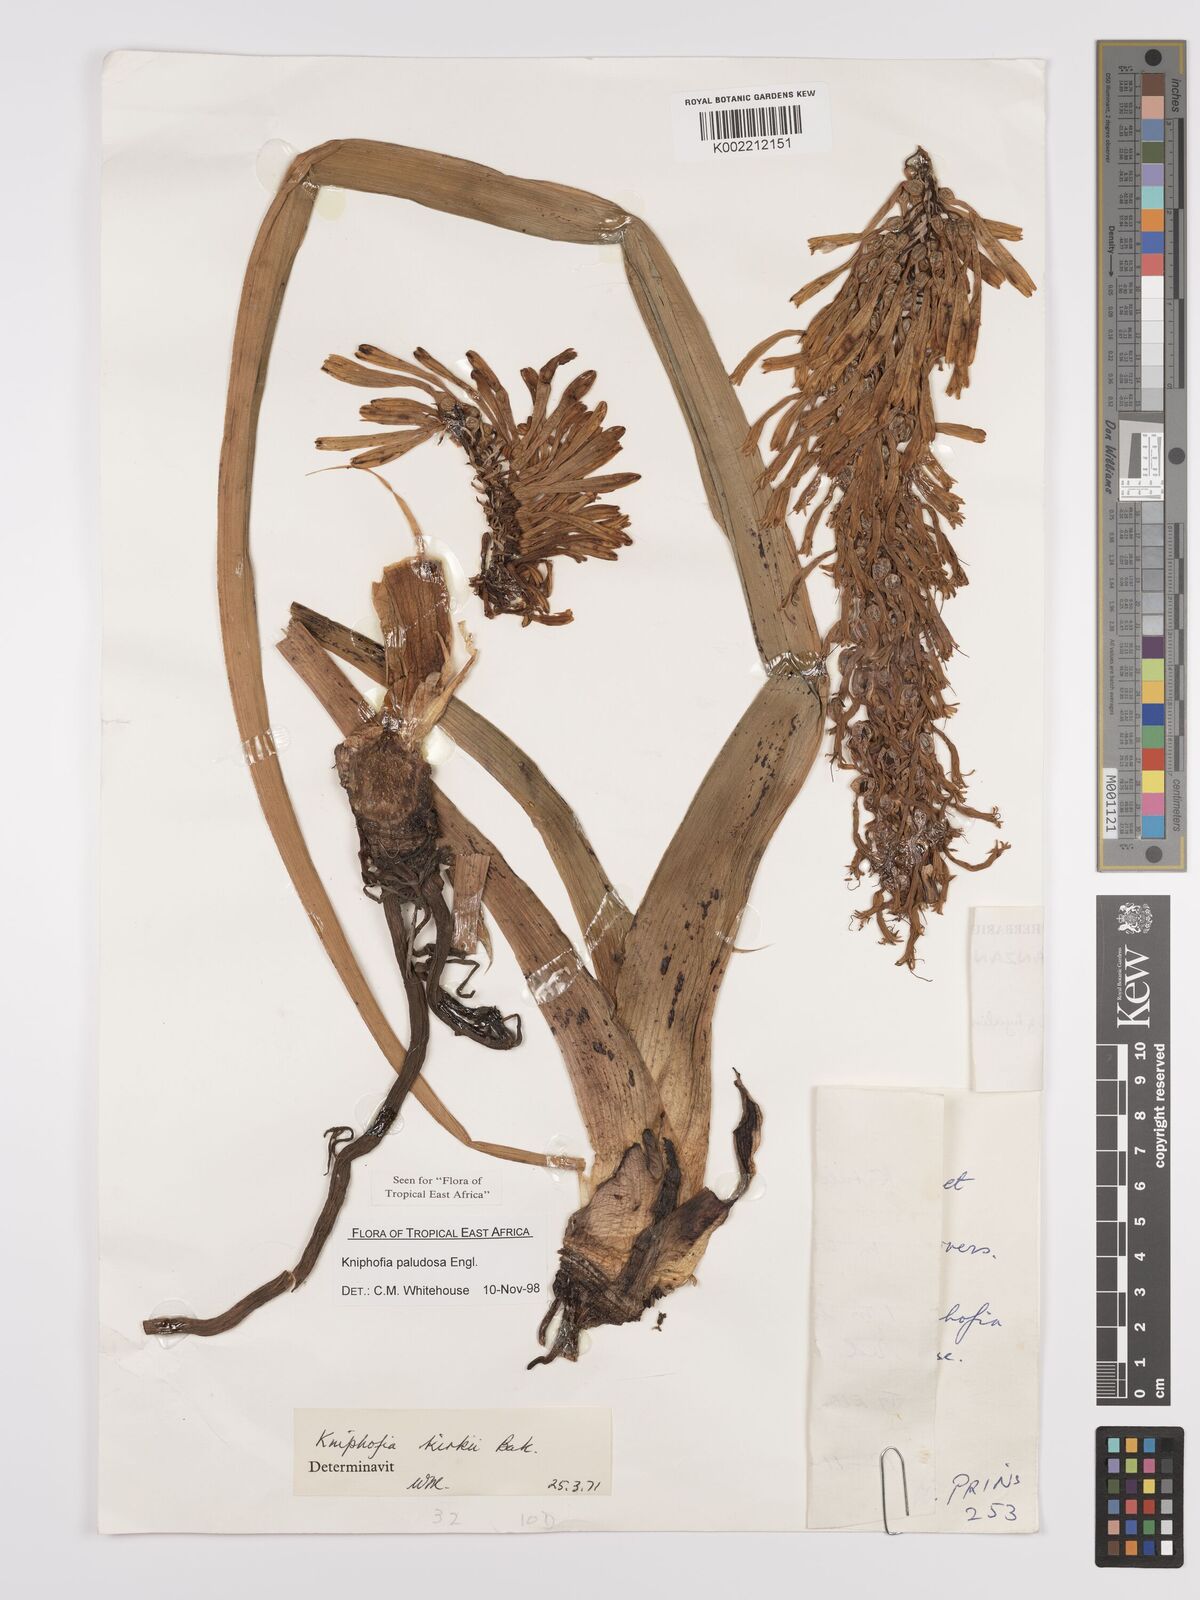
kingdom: Plantae
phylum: Tracheophyta
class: Liliopsida
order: Asparagales
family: Asphodelaceae
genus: Kniphofia
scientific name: Kniphofia paludosa
